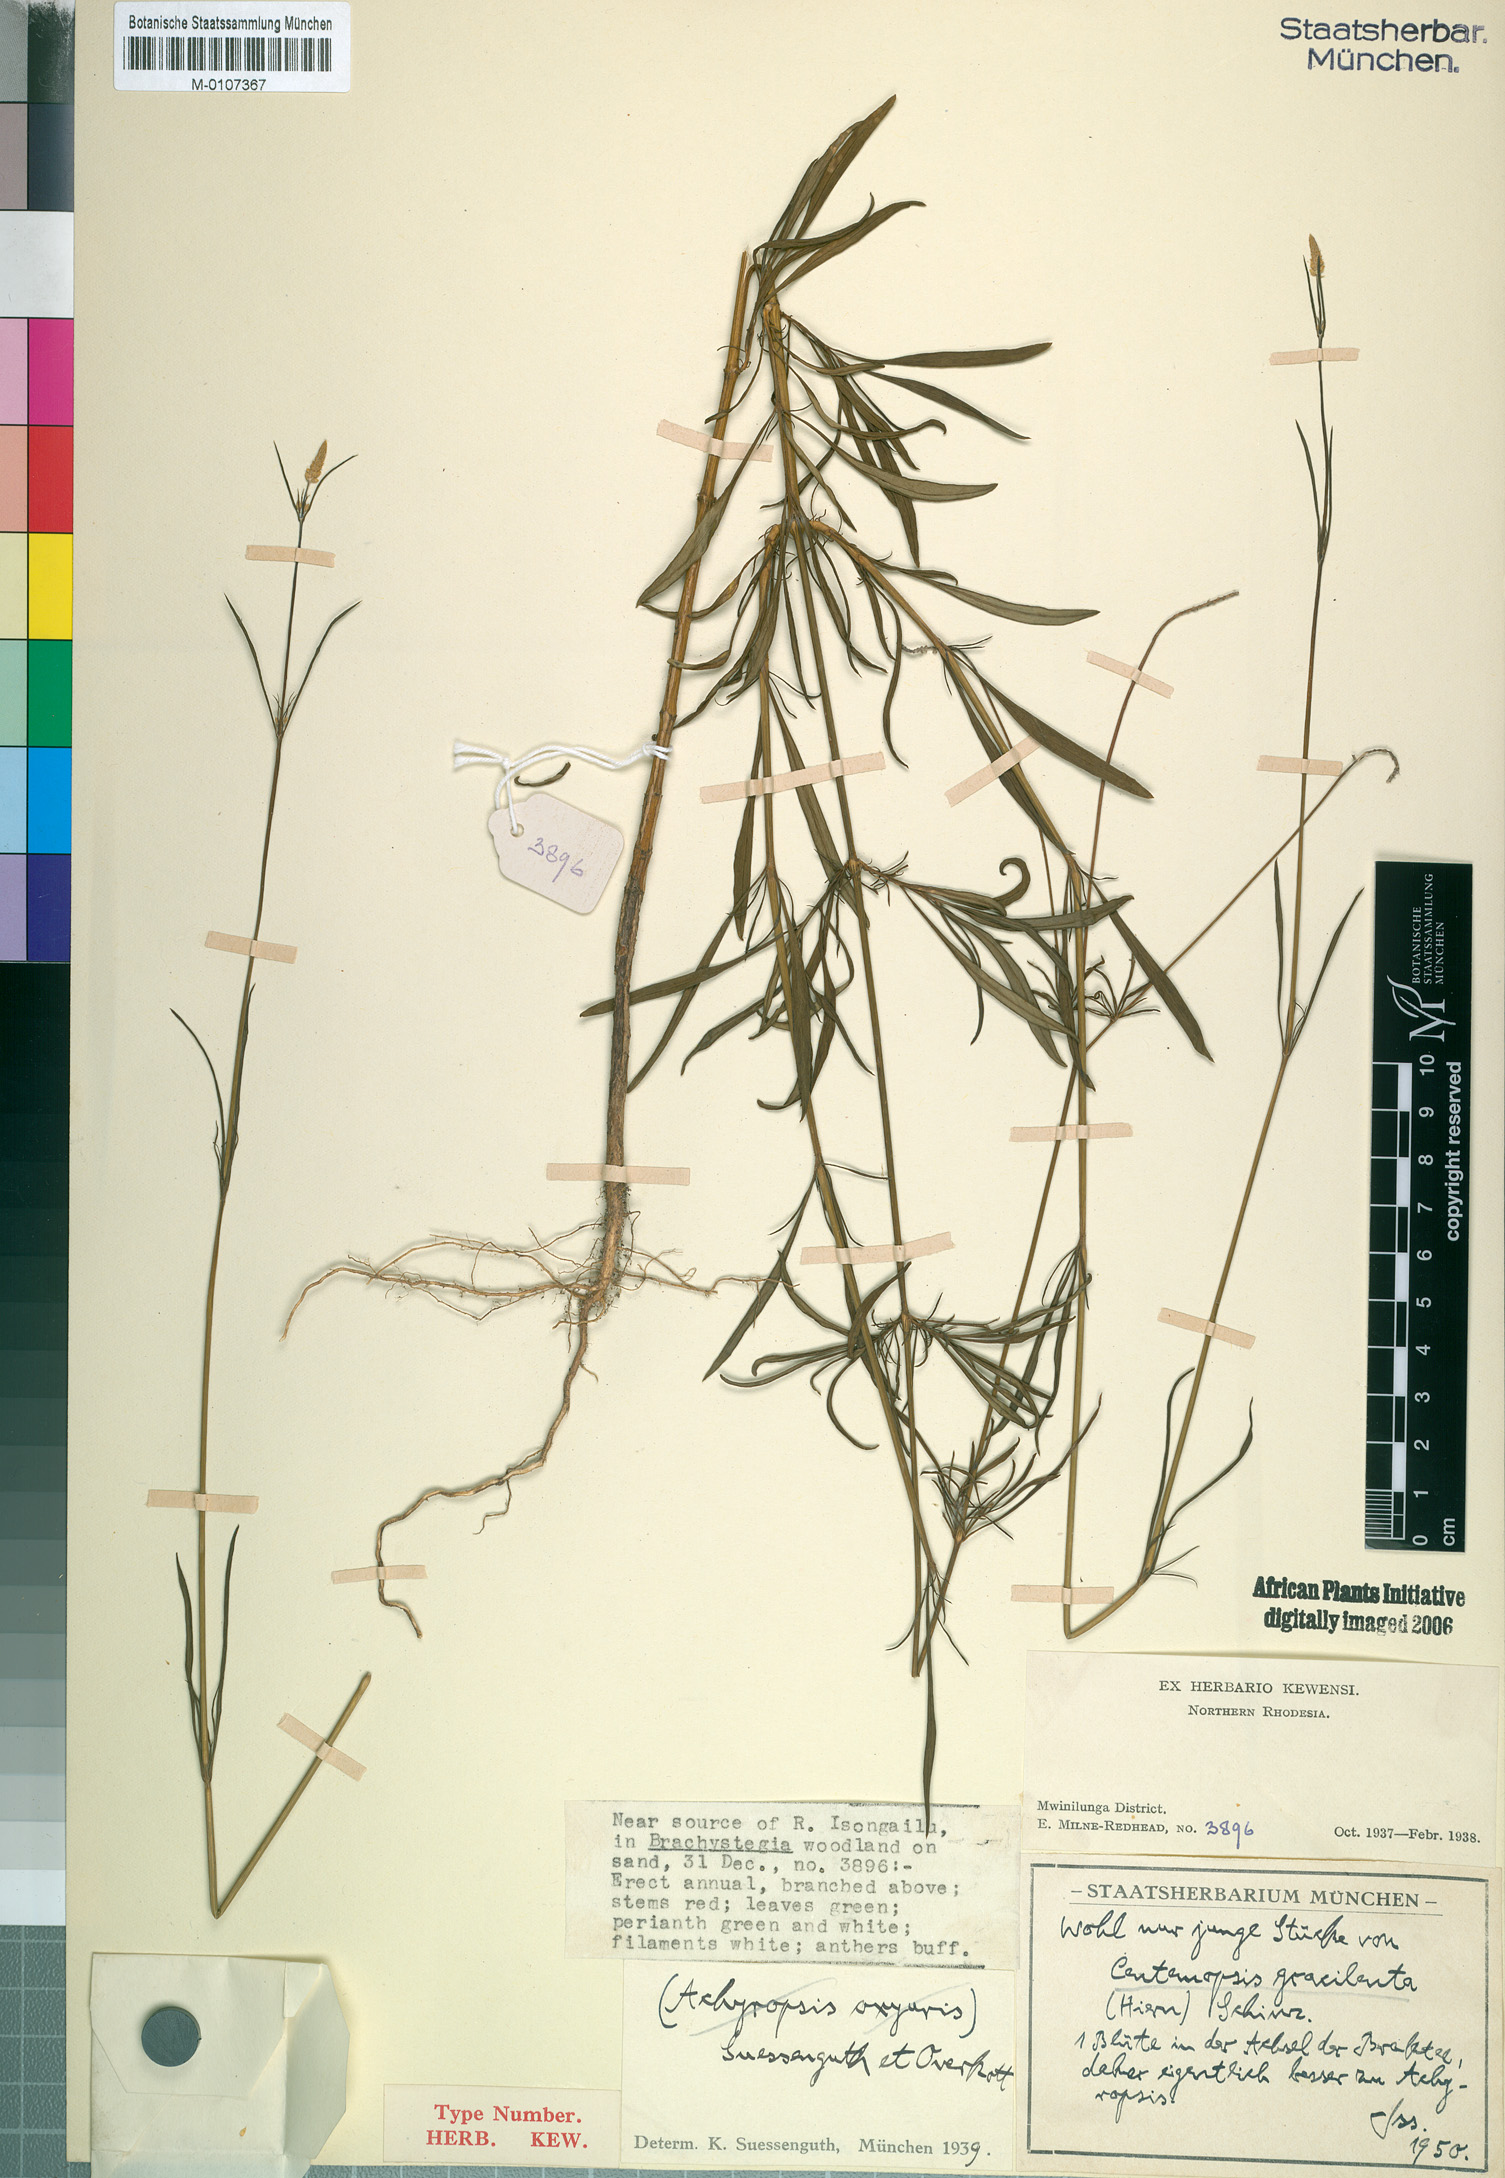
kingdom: Plantae
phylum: Tracheophyta
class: Magnoliopsida
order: Caryophyllales
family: Amaranthaceae
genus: Centemopsis
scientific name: Centemopsis gracilenta
